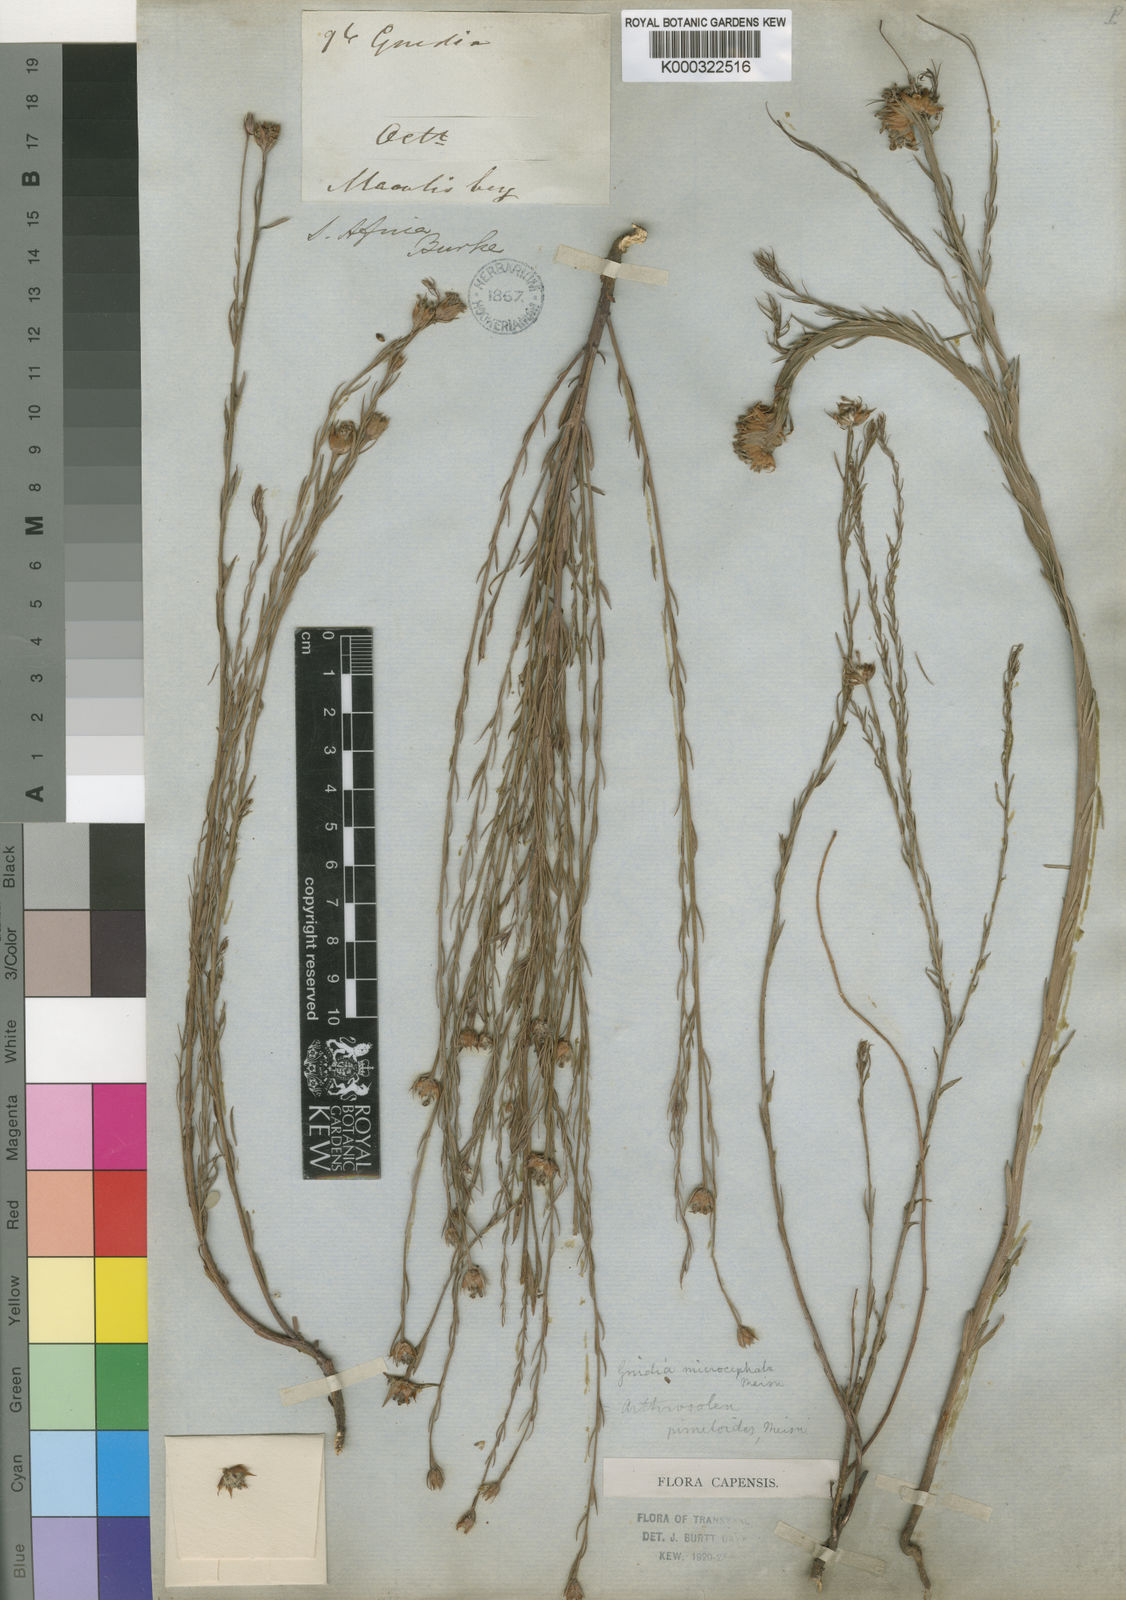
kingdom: Plantae
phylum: Tracheophyta
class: Magnoliopsida
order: Malvales
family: Thymelaeaceae
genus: Gnidia
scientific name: Gnidia microcephala
